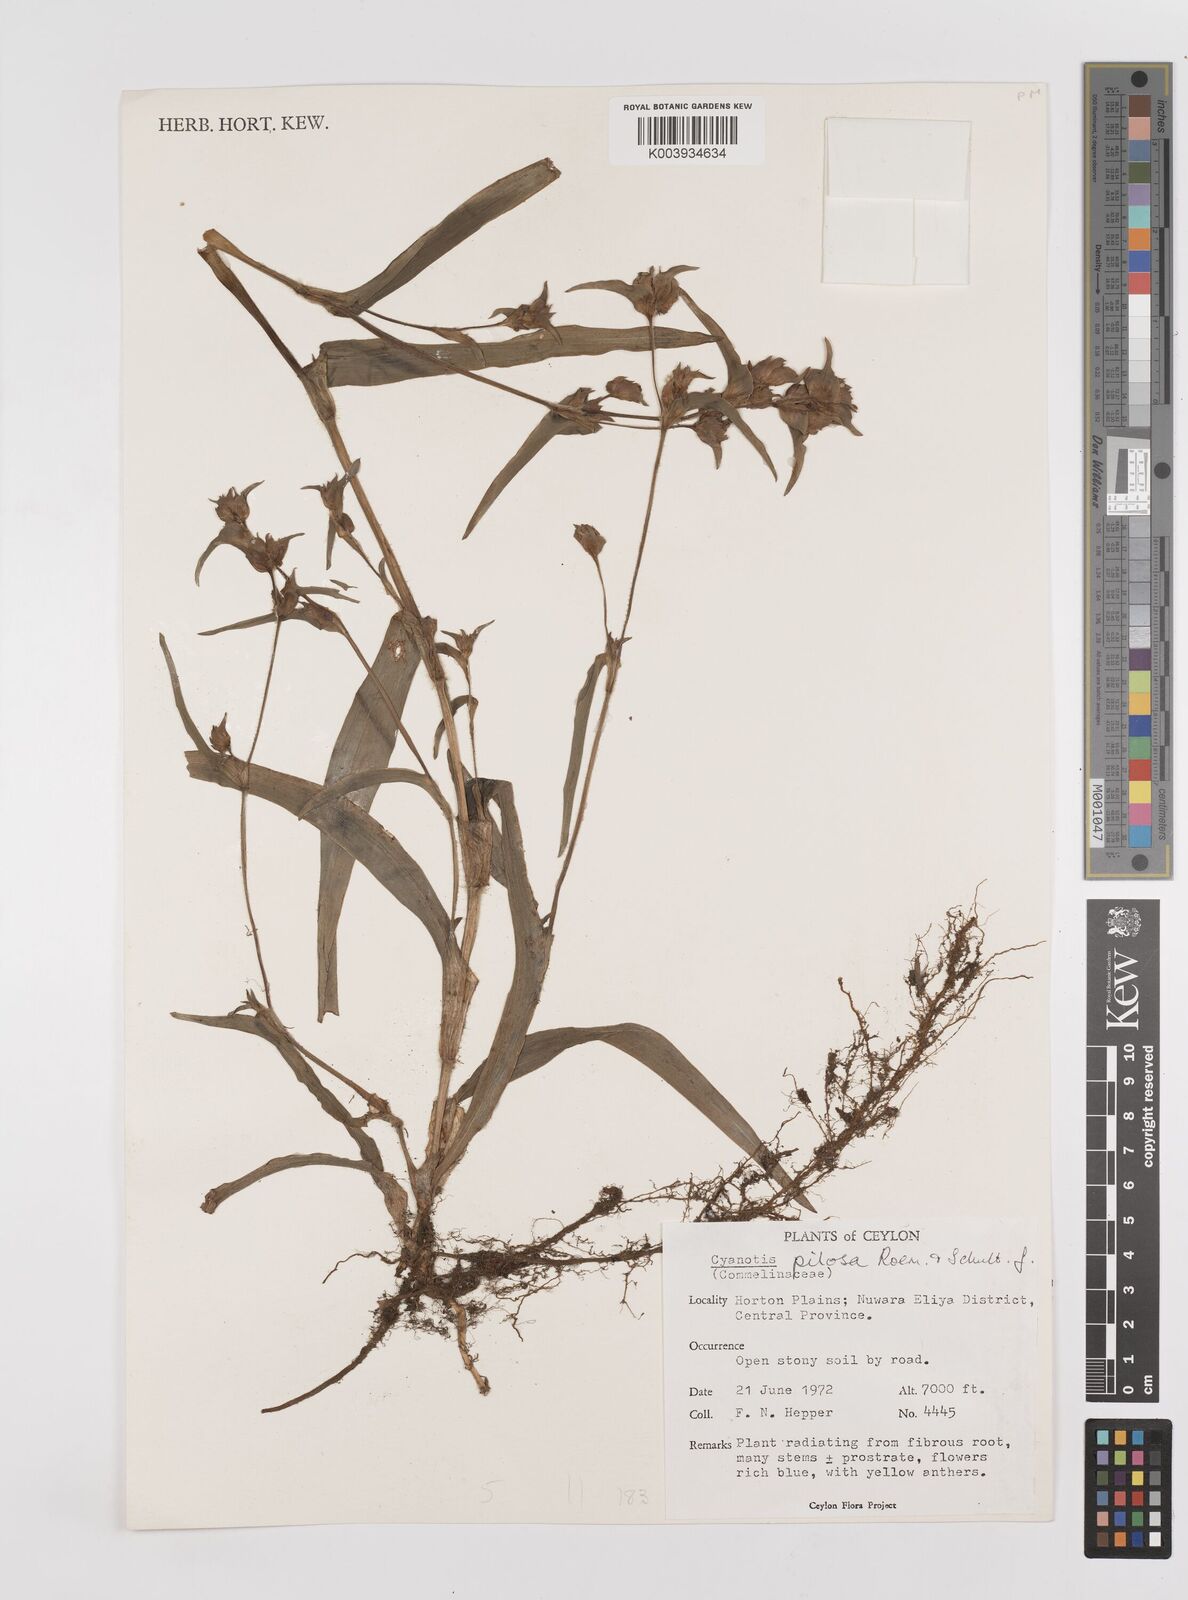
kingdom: Plantae
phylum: Tracheophyta
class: Liliopsida
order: Commelinales
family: Commelinaceae
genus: Cyanotis
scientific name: Cyanotis pilosa
